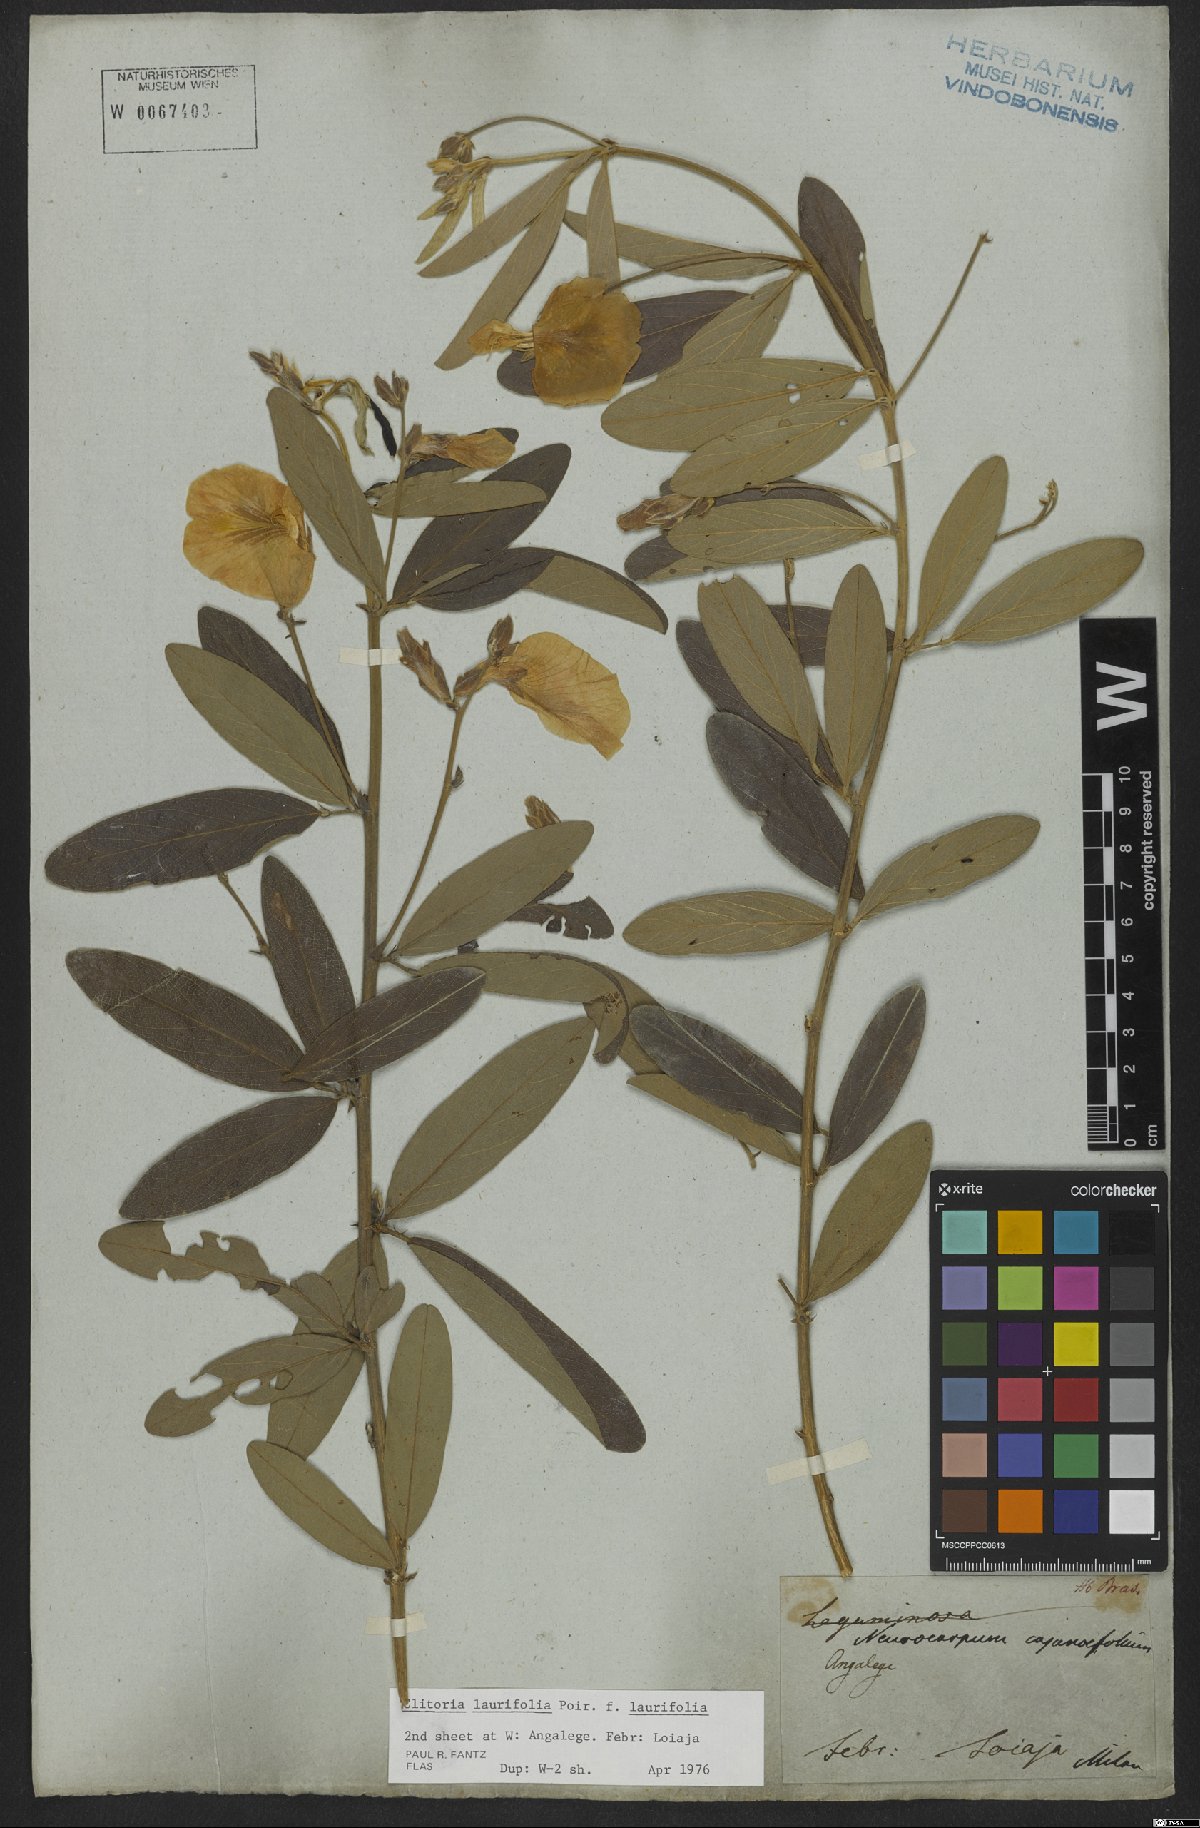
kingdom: Plantae
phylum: Tracheophyta
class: Magnoliopsida
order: Fabales
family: Fabaceae
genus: Clitoria
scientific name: Clitoria laurifolia
